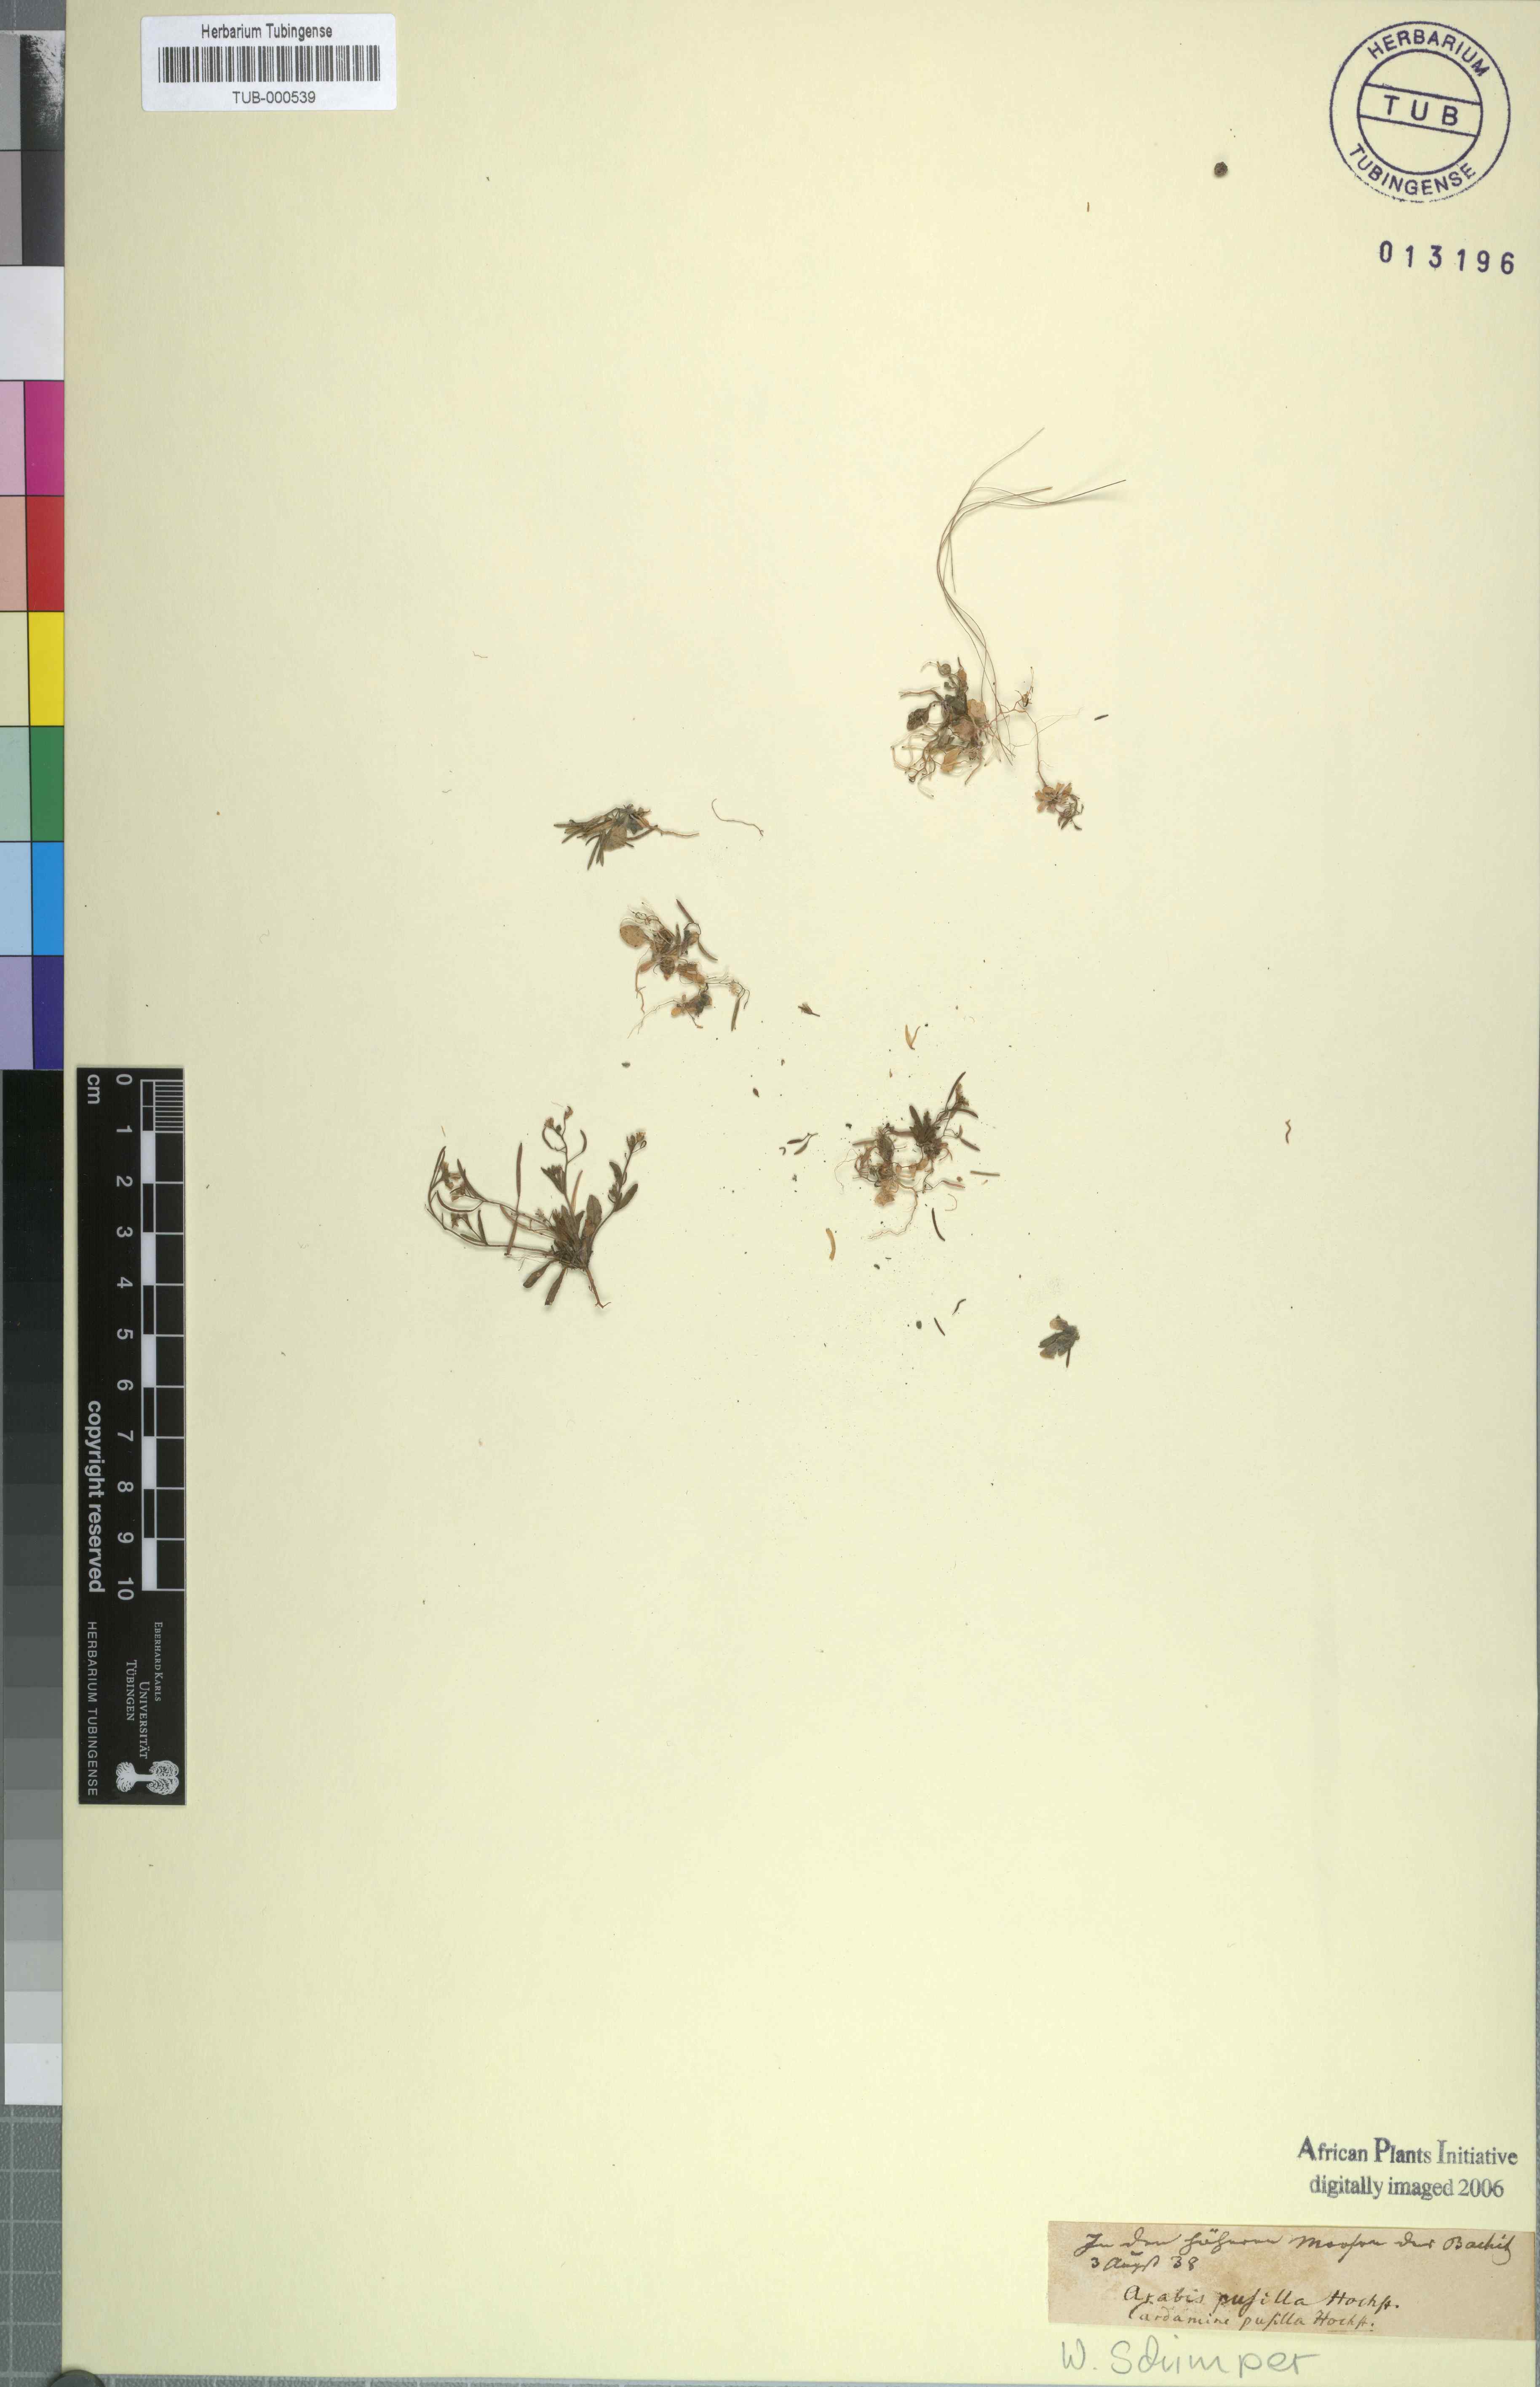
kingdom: Plantae
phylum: Tracheophyta
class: Magnoliopsida
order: Brassicales
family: Brassicaceae
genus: Arabidopsis
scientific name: Arabidopsis thaliana
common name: Thale cress
